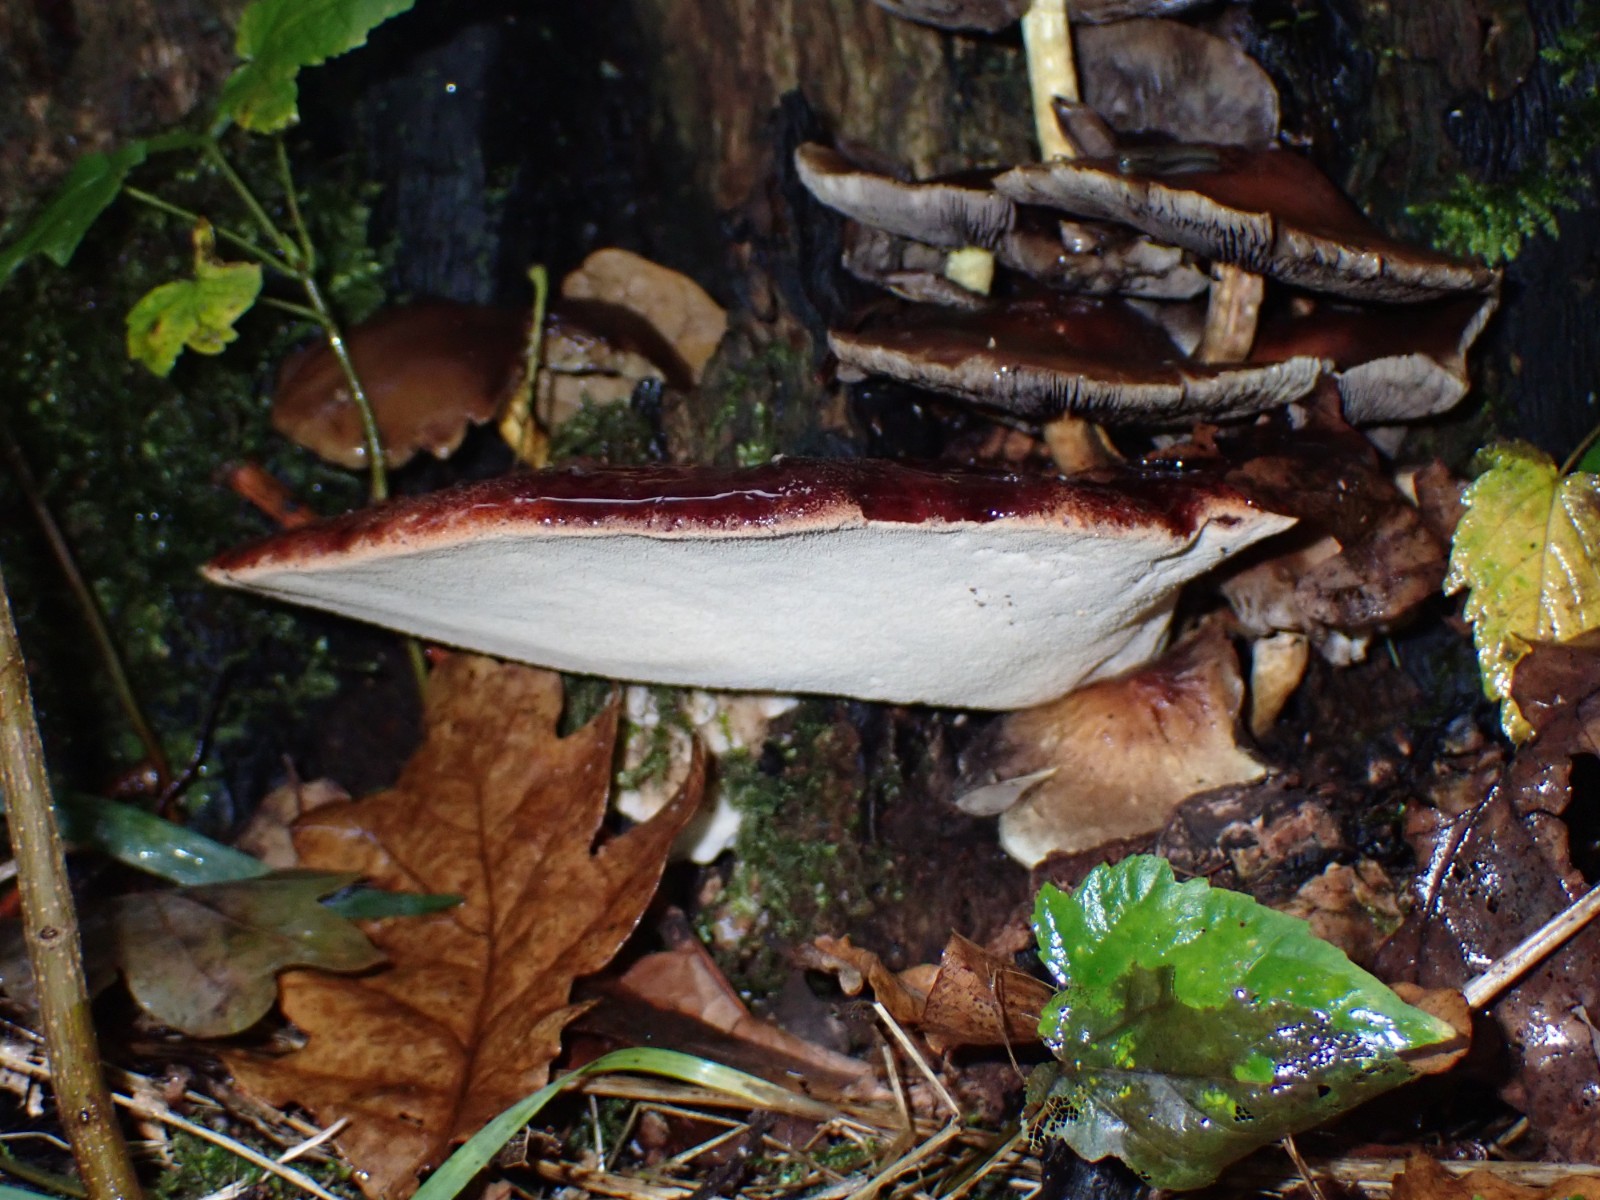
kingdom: Fungi
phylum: Basidiomycota
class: Agaricomycetes
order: Agaricales
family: Fistulinaceae
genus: Fistulina
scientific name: Fistulina hepatica
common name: oksetunge
